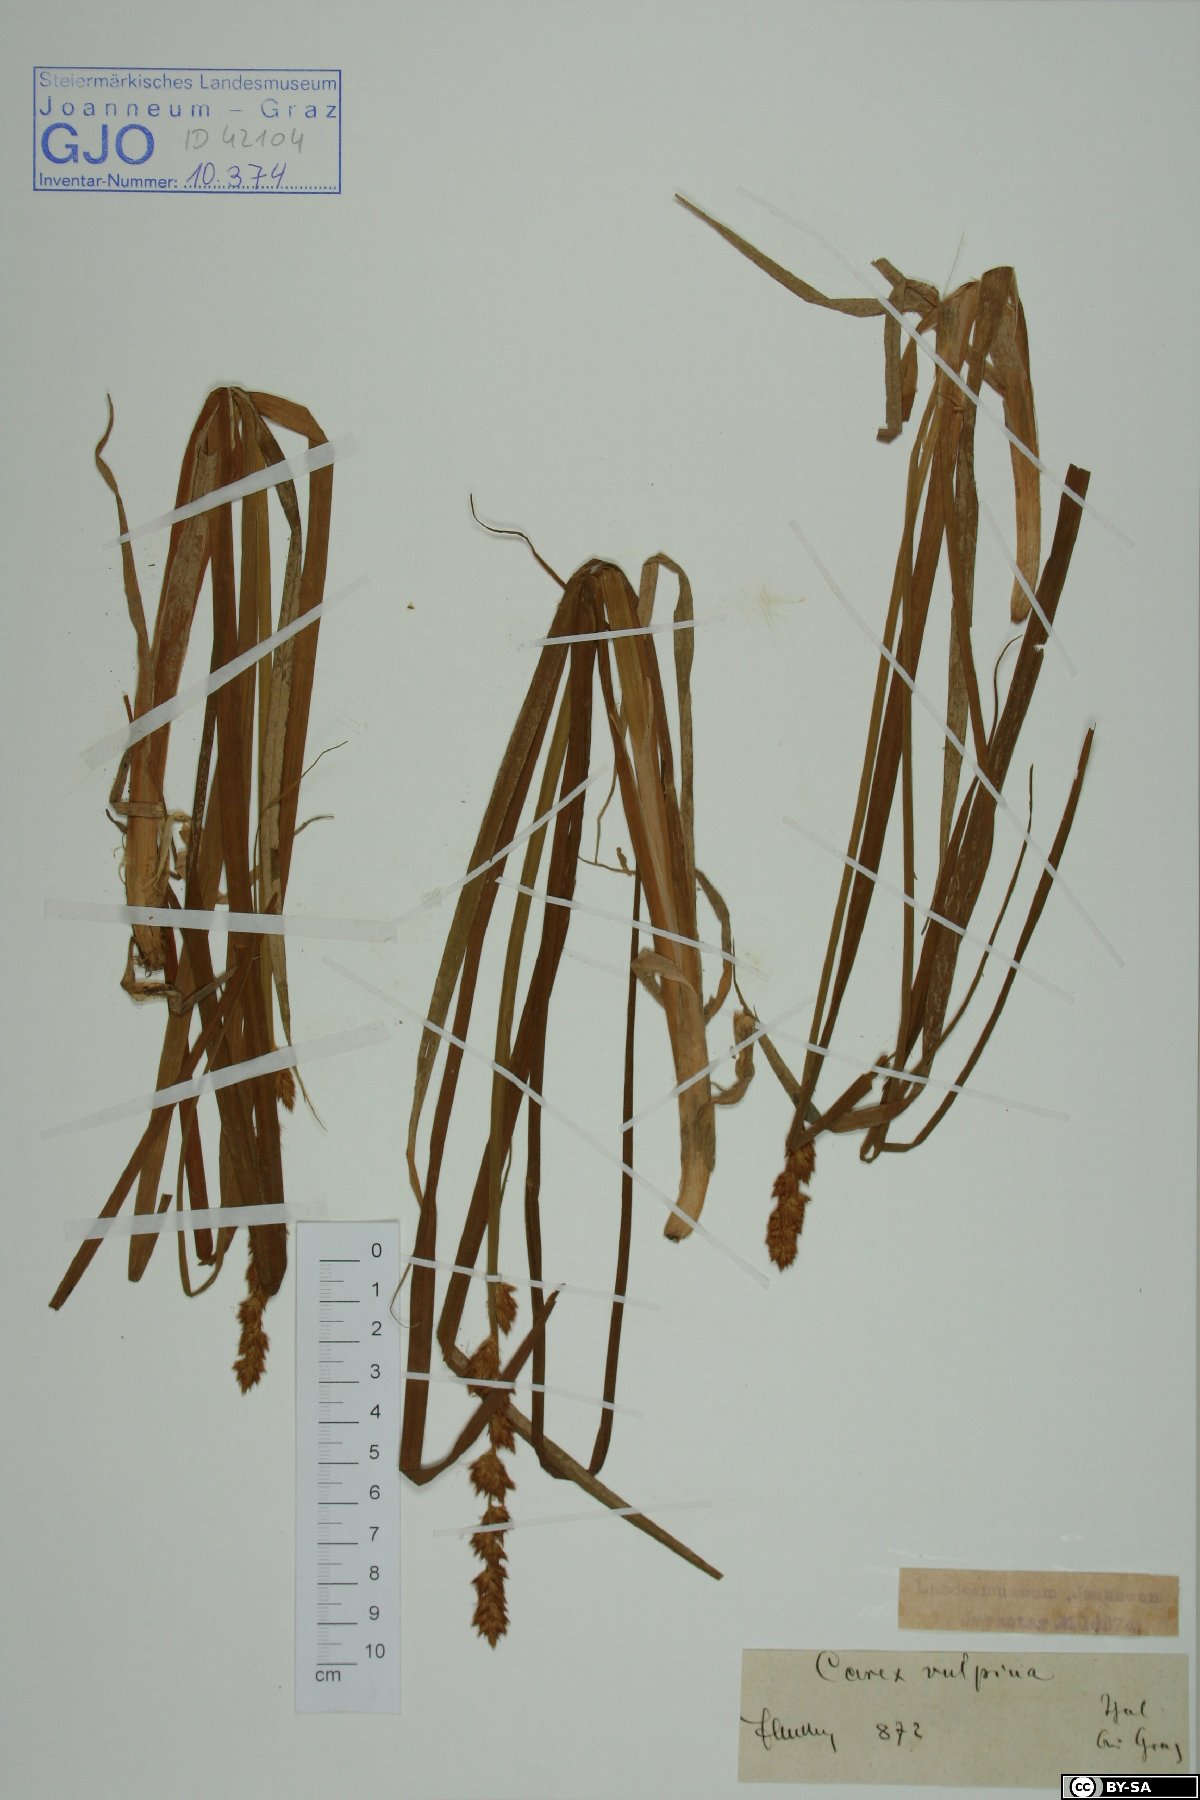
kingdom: Plantae
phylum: Tracheophyta
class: Liliopsida
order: Poales
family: Cyperaceae
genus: Carex
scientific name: Carex vulpina
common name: True fox-sedge
